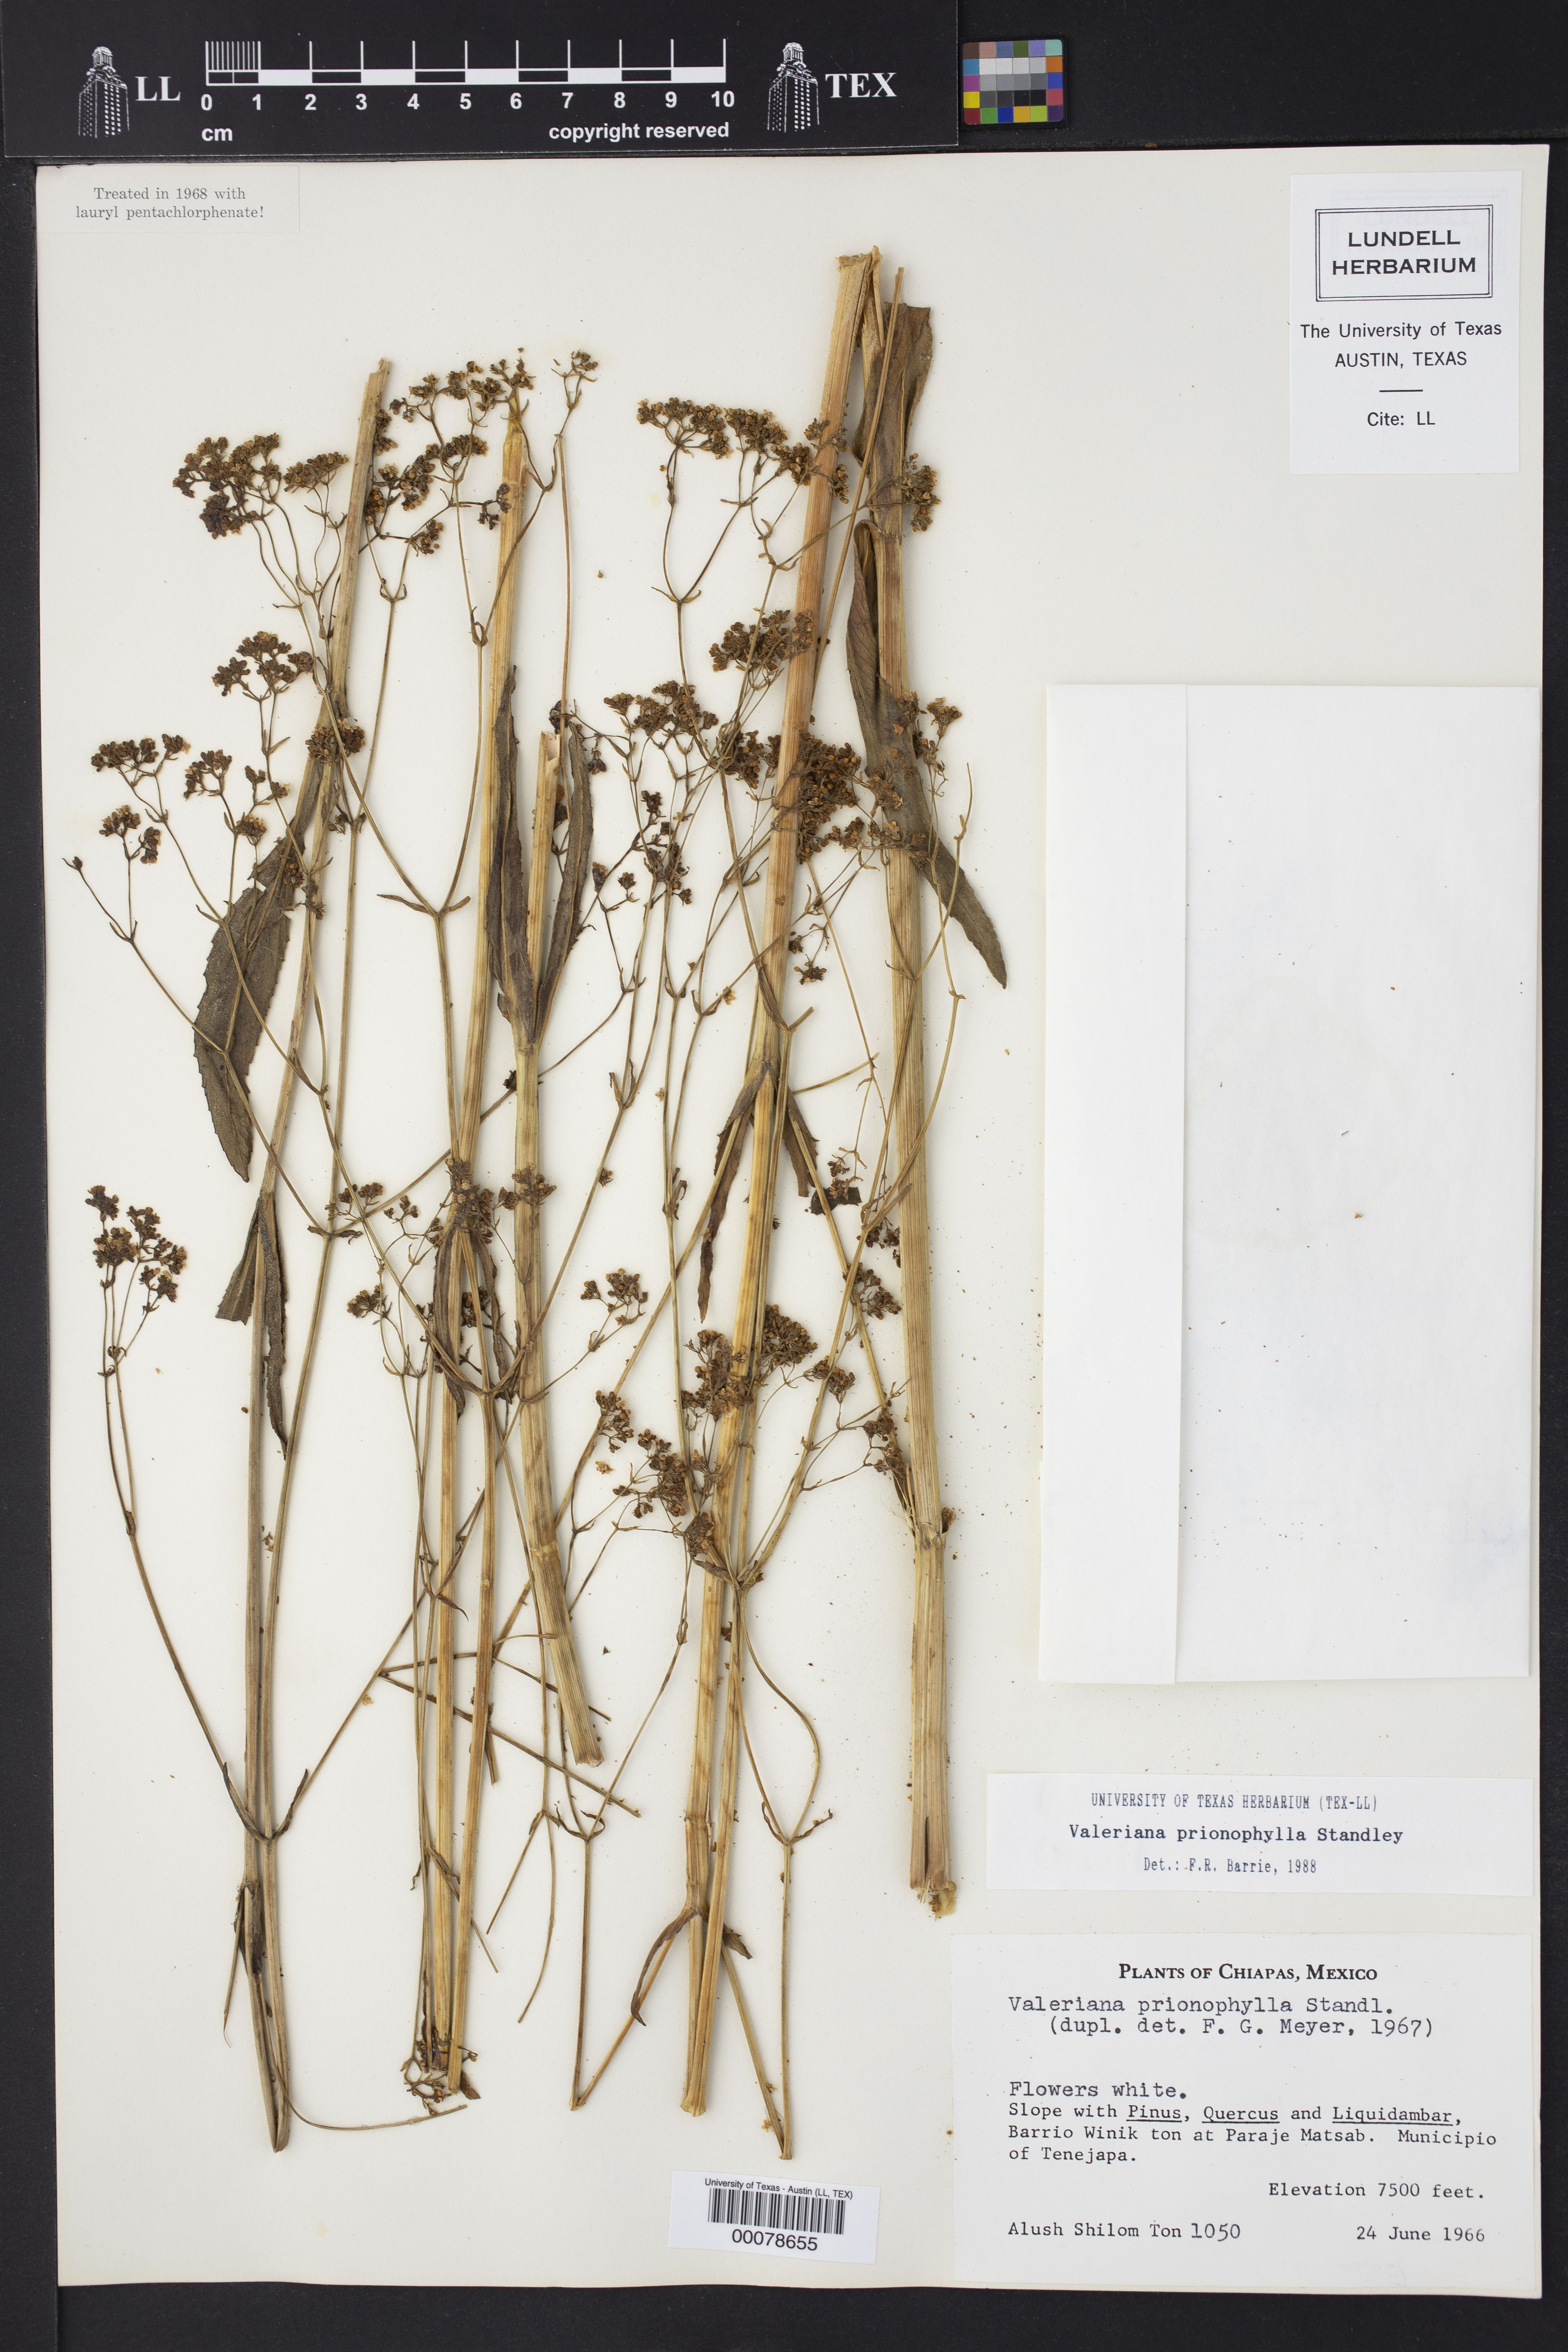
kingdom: Plantae
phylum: Tracheophyta
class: Magnoliopsida
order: Dipsacales
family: Caprifoliaceae
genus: Valeriana
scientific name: Valeriana prionophylla
